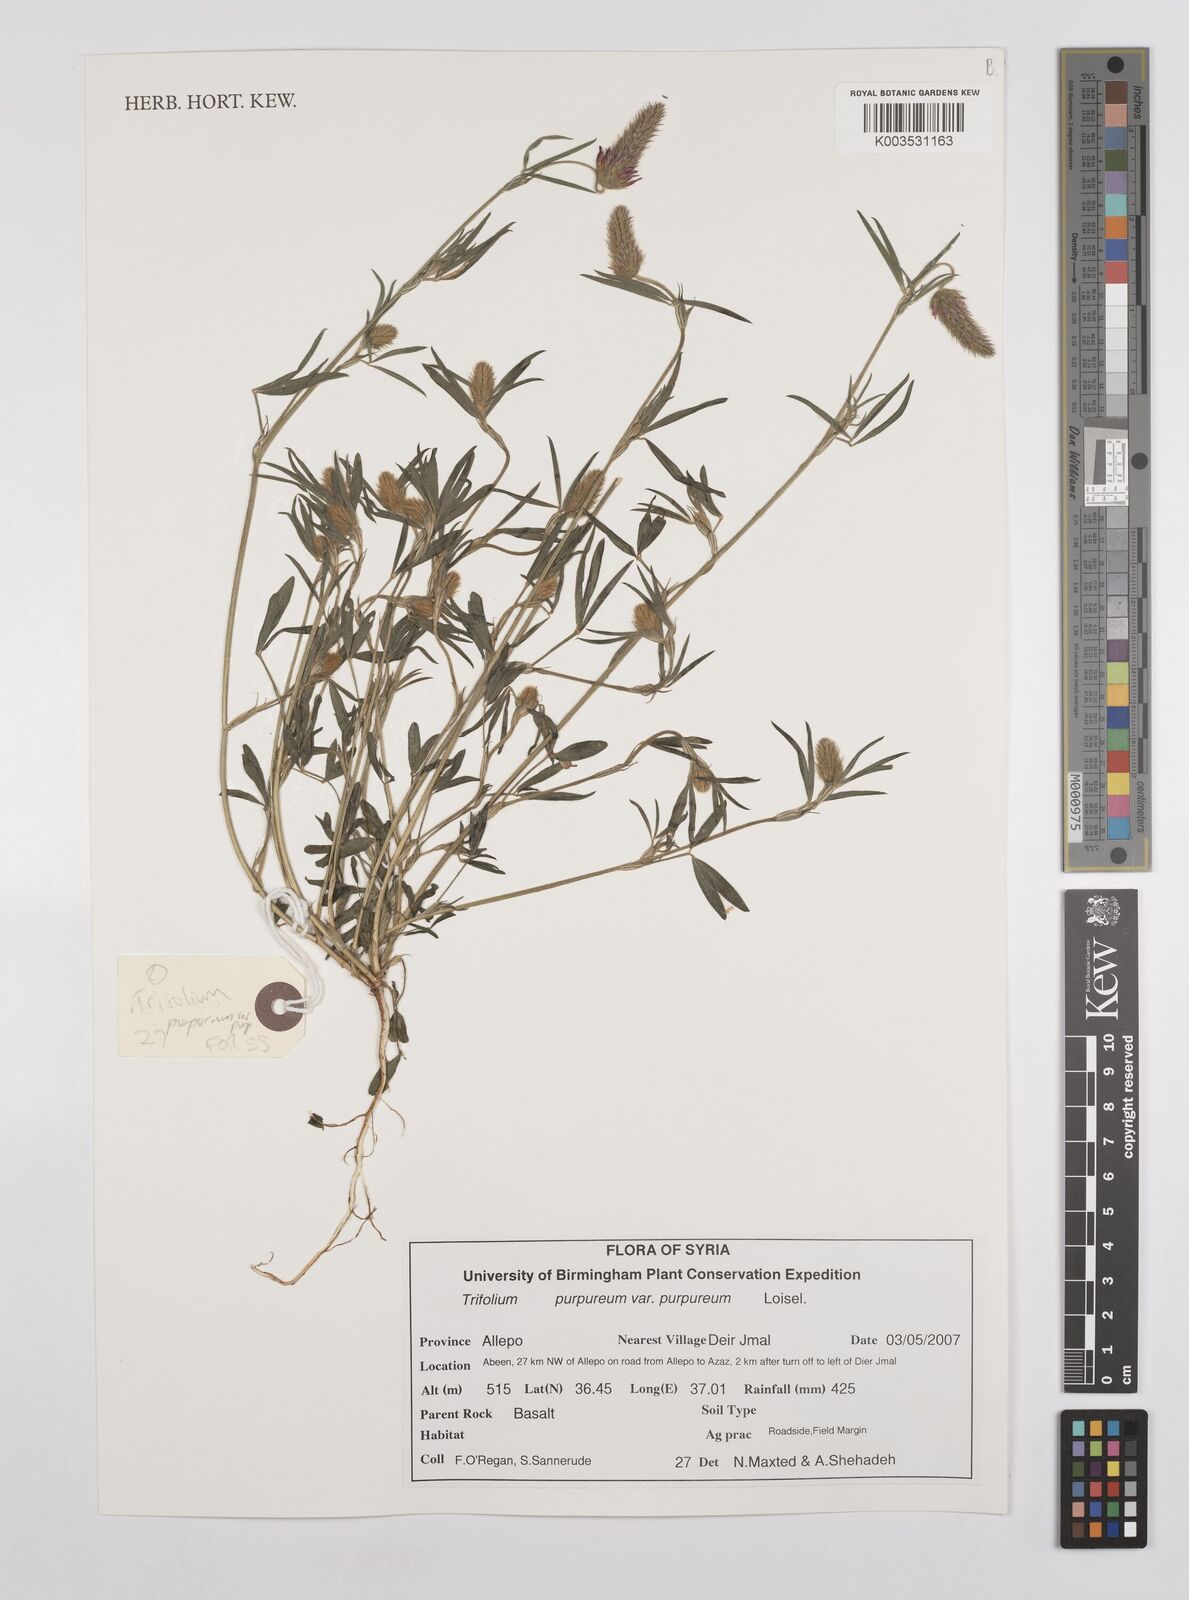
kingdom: Plantae
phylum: Tracheophyta
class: Magnoliopsida
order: Fabales
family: Fabaceae
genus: Trifolium
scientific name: Trifolium purpureum
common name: Purple clover
